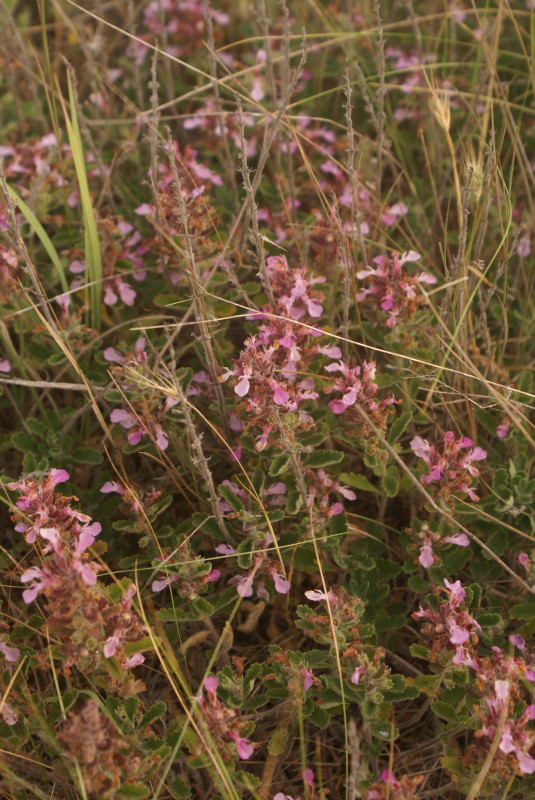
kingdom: Plantae
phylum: Tracheophyta
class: Magnoliopsida
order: Lamiales
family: Lamiaceae
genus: Thymus
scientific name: Thymus
